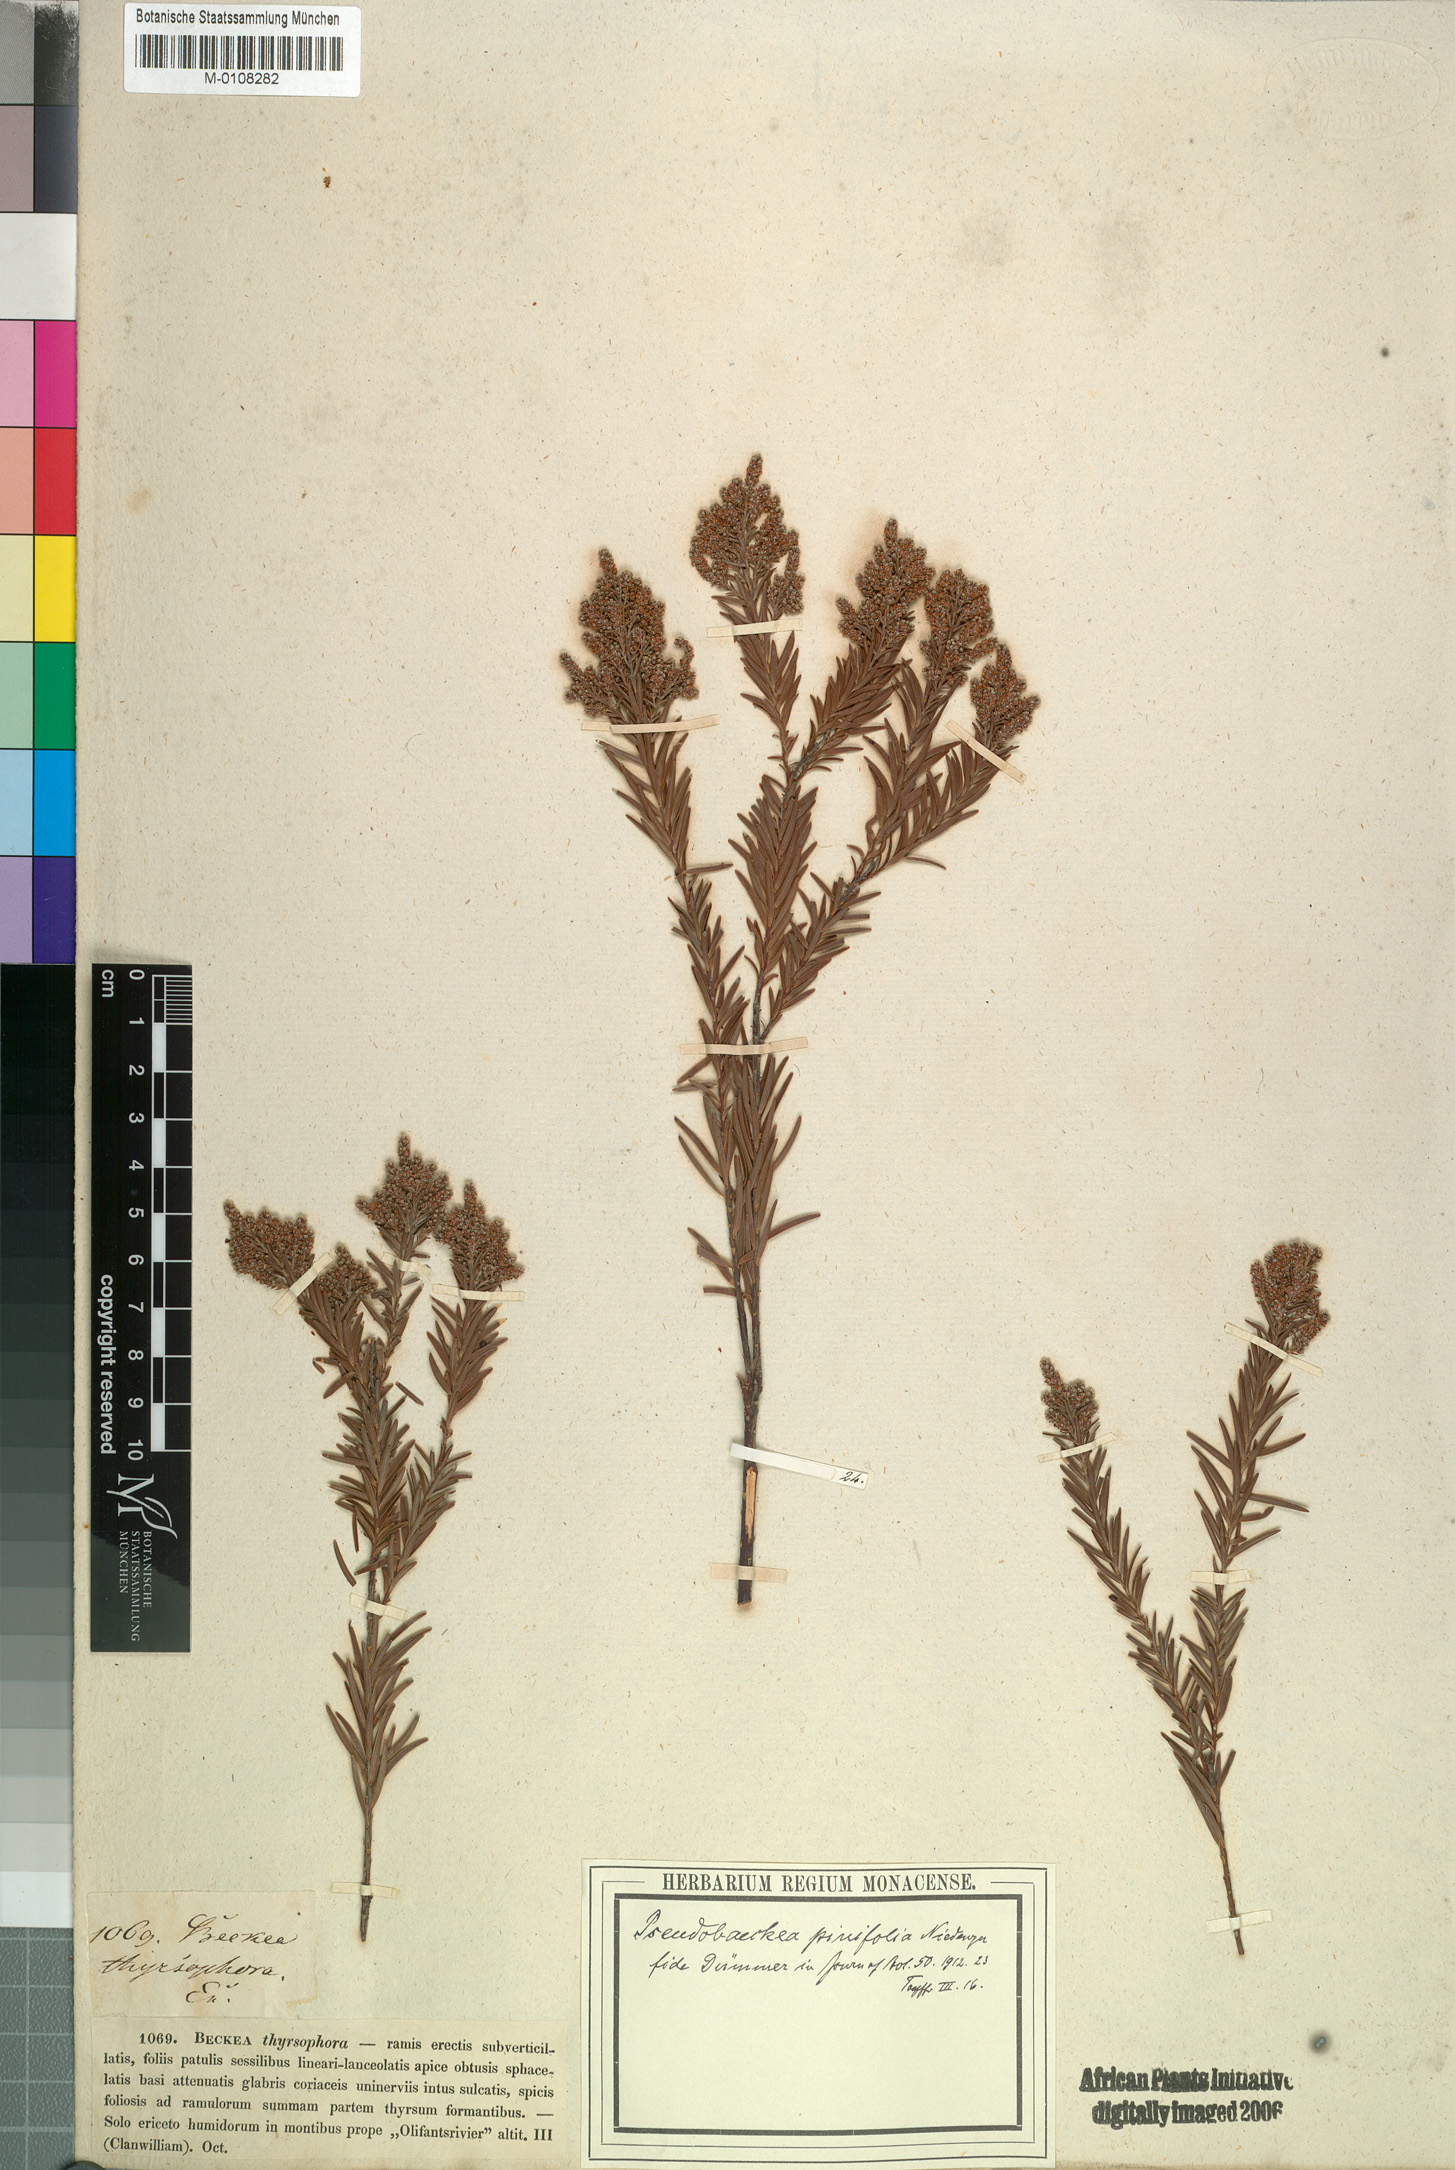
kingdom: Plantae
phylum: Tracheophyta
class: Magnoliopsida
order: Bruniales
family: Bruniaceae
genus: Brunia
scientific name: Brunia africana
